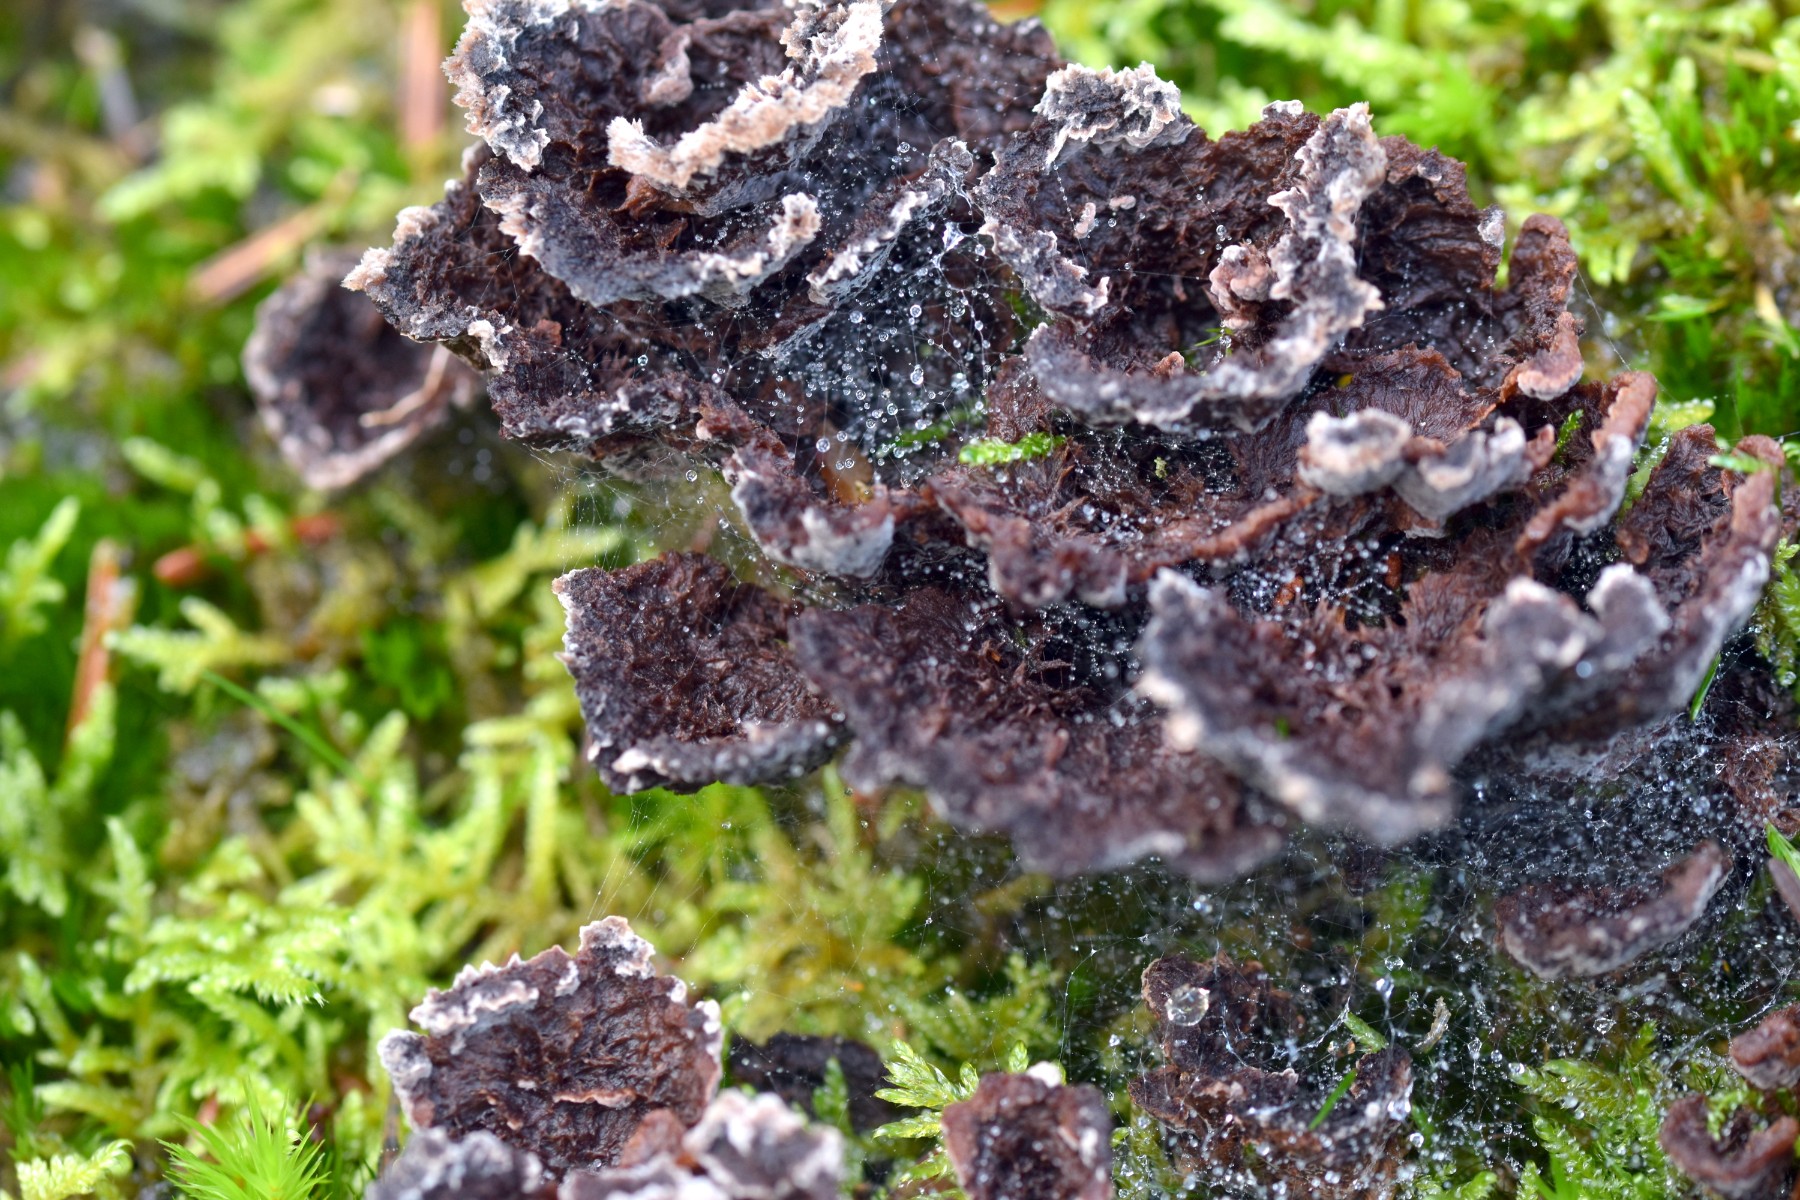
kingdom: Fungi
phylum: Basidiomycota
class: Agaricomycetes
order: Thelephorales
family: Thelephoraceae
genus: Thelephora
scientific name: Thelephora terrestris
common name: fliget frynsesvamp
